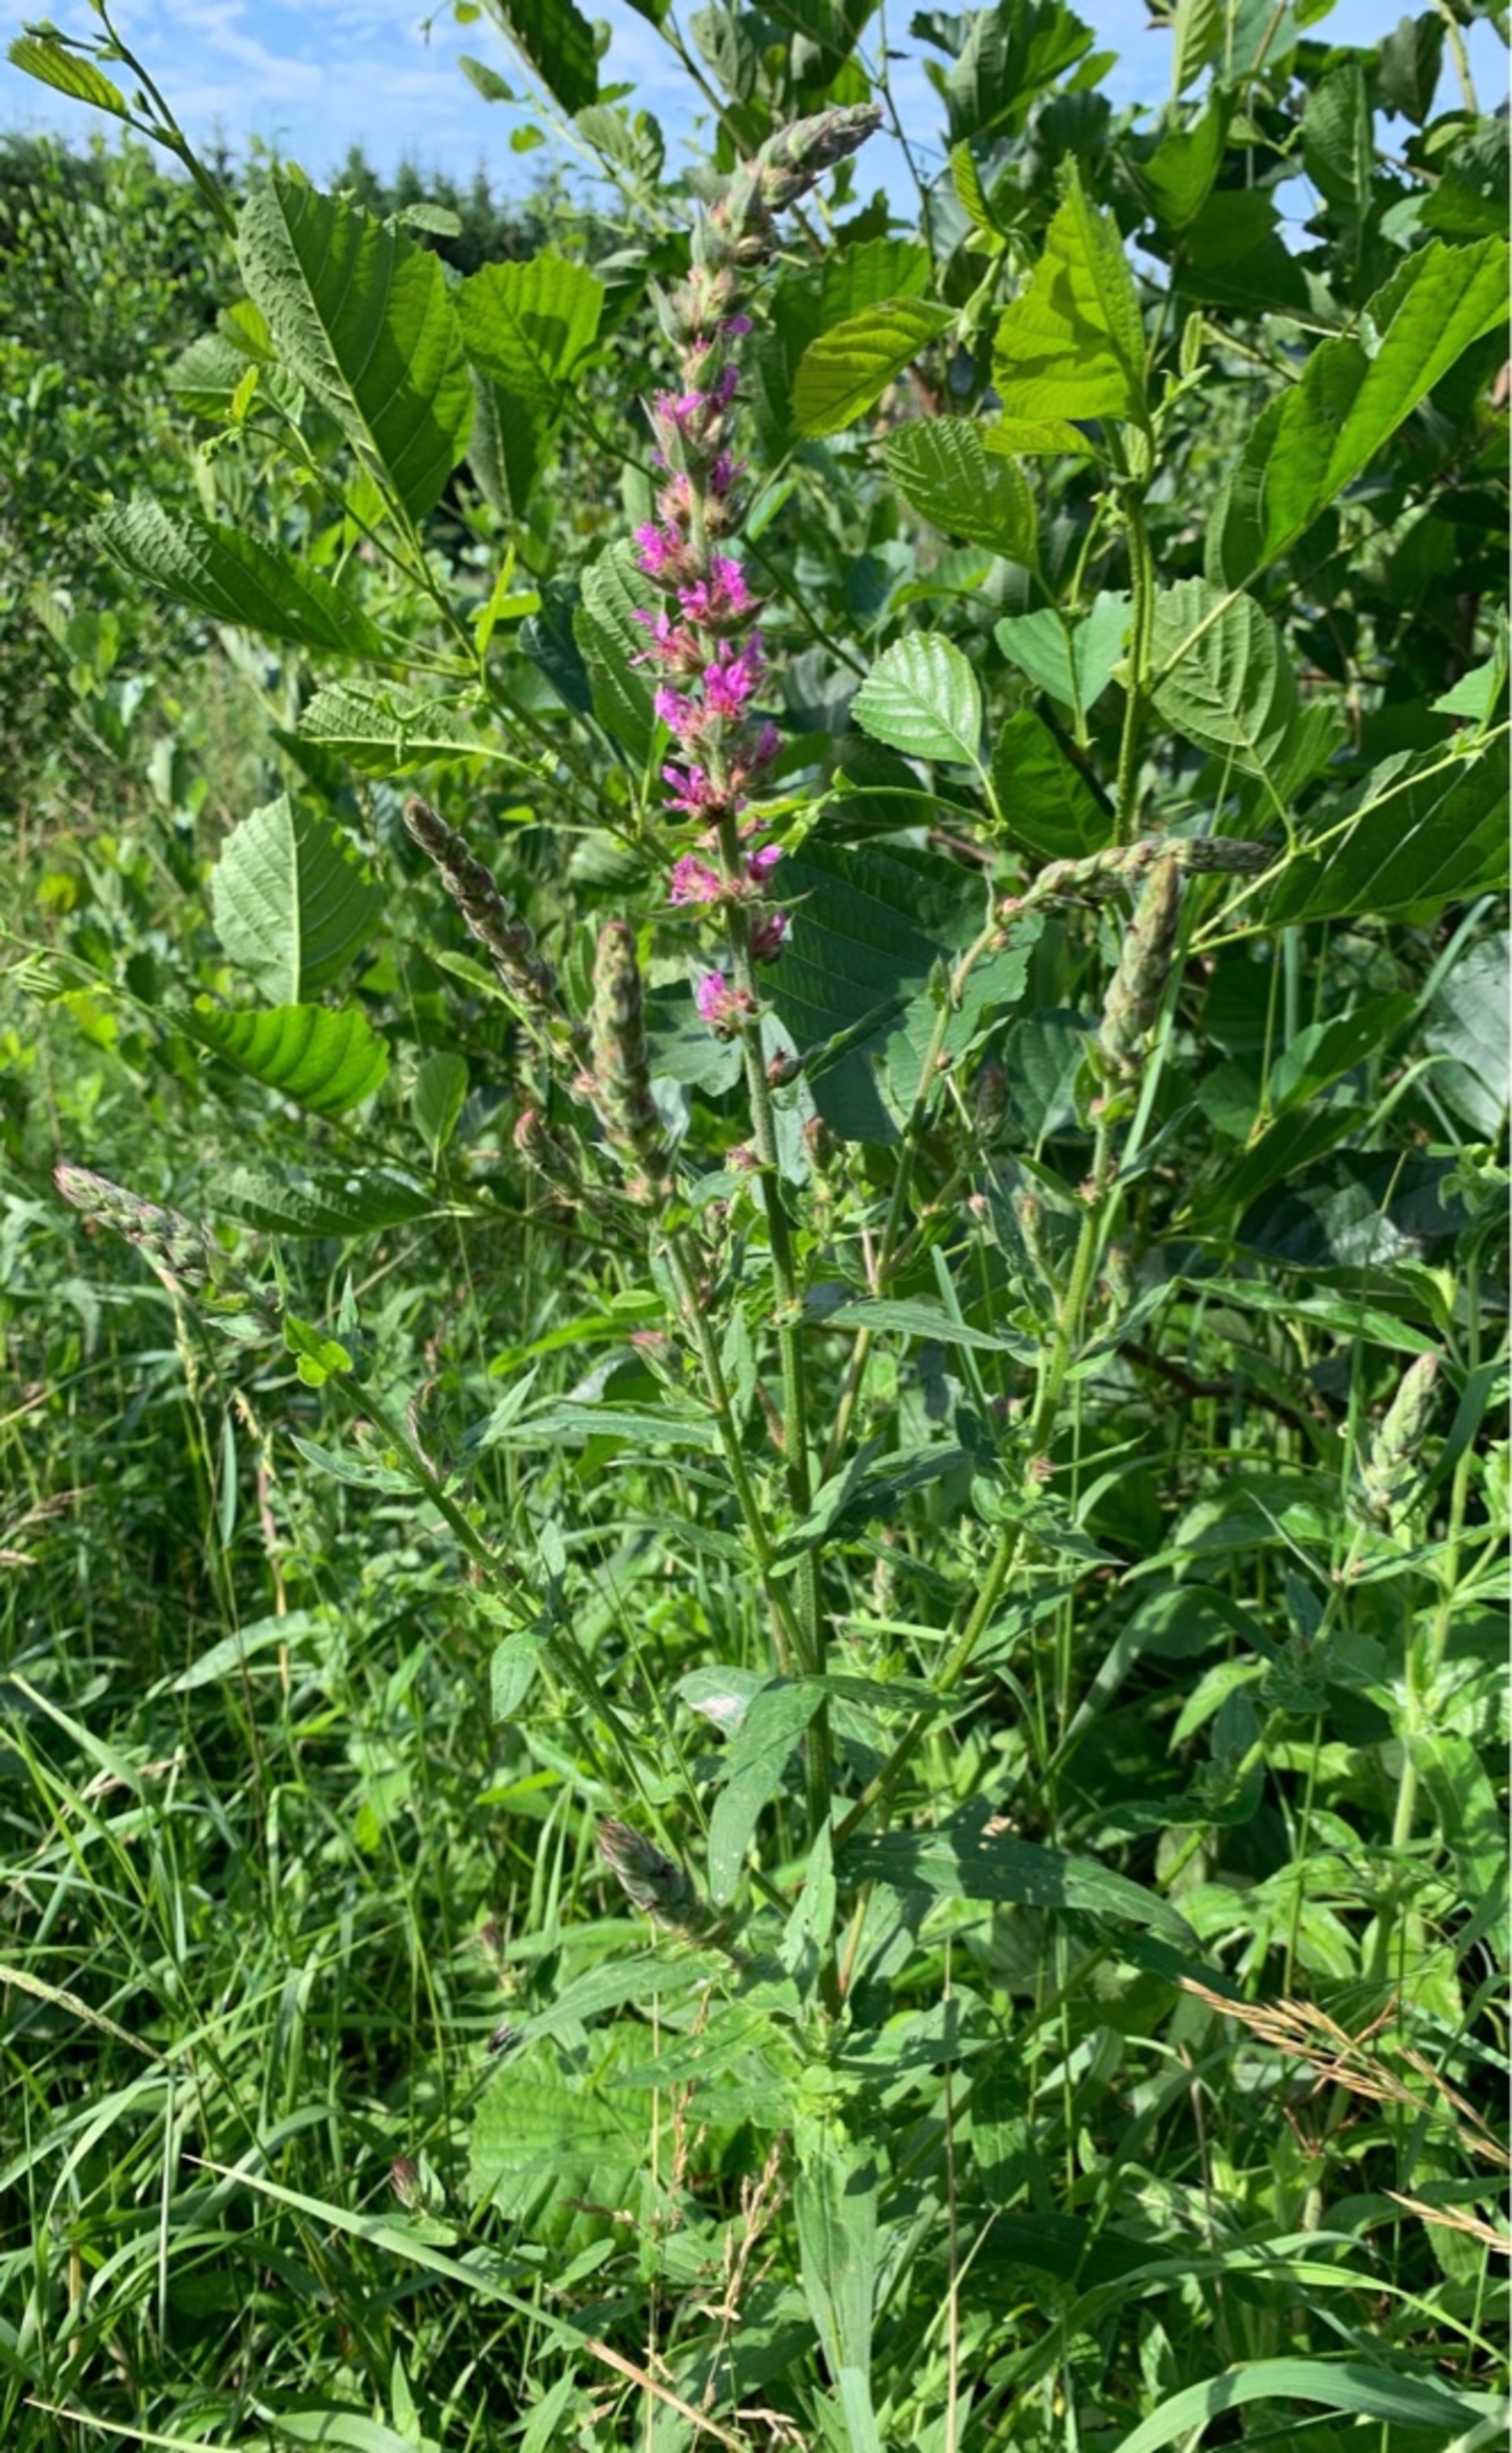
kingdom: Plantae
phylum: Tracheophyta
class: Magnoliopsida
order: Myrtales
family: Lythraceae
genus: Lythrum
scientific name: Lythrum salicaria
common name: Kattehale
